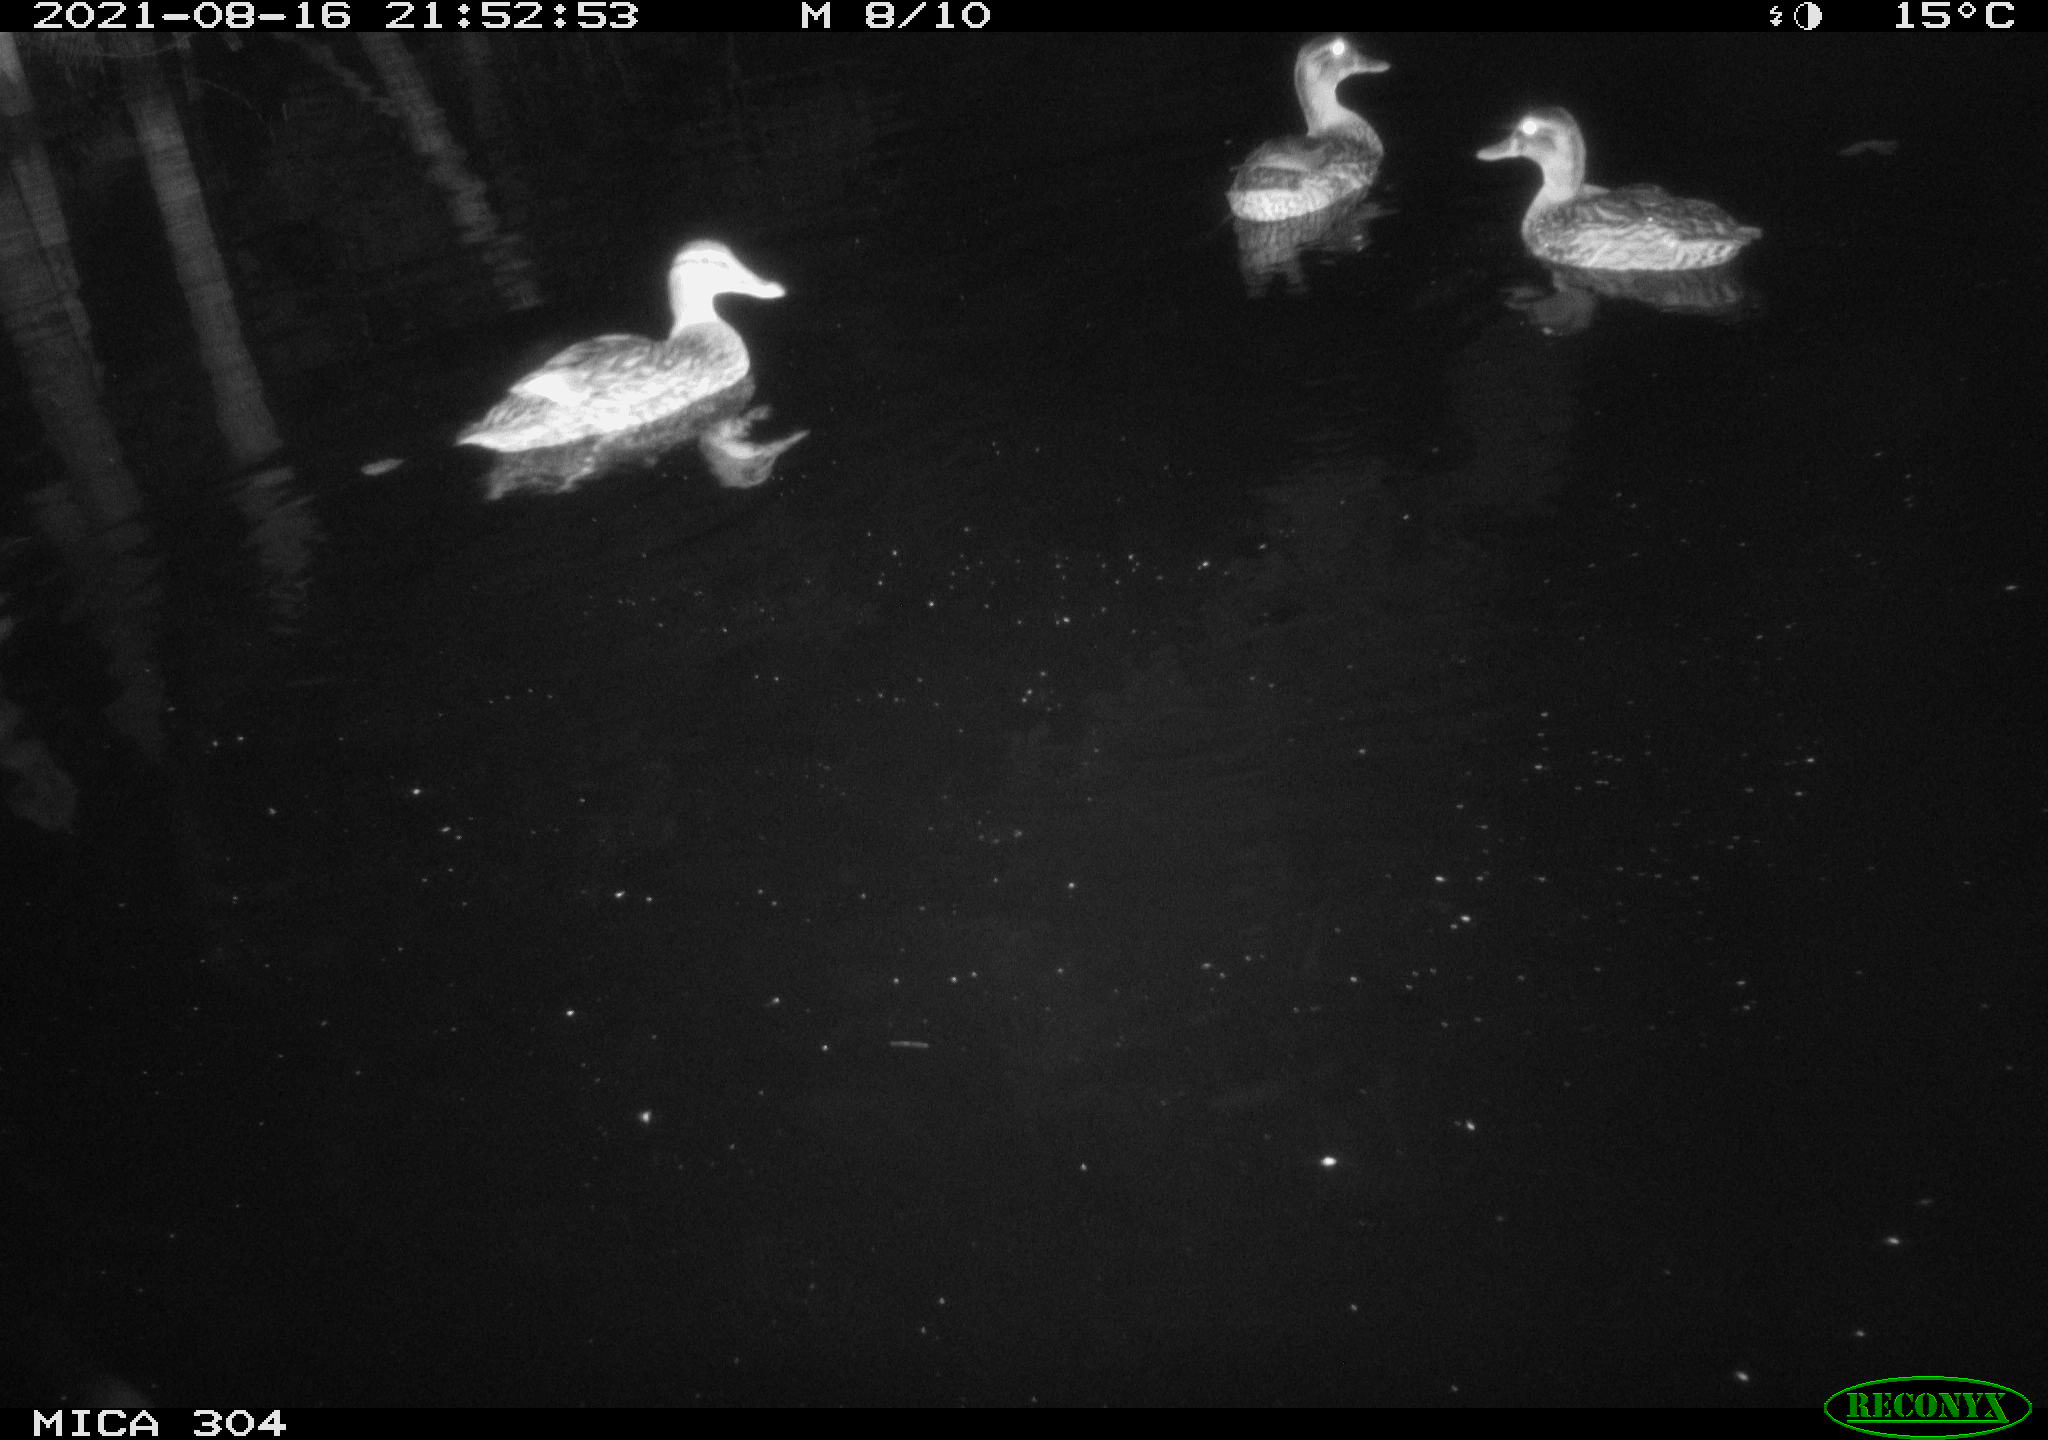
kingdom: Animalia
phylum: Chordata
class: Aves
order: Anseriformes
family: Anatidae
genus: Anas
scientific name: Anas platyrhynchos
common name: Mallard
